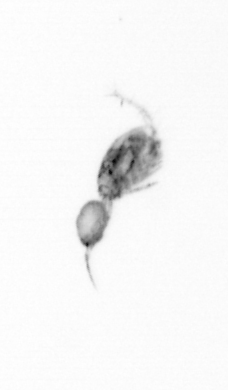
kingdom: Animalia
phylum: Arthropoda
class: Copepoda
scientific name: Copepoda
